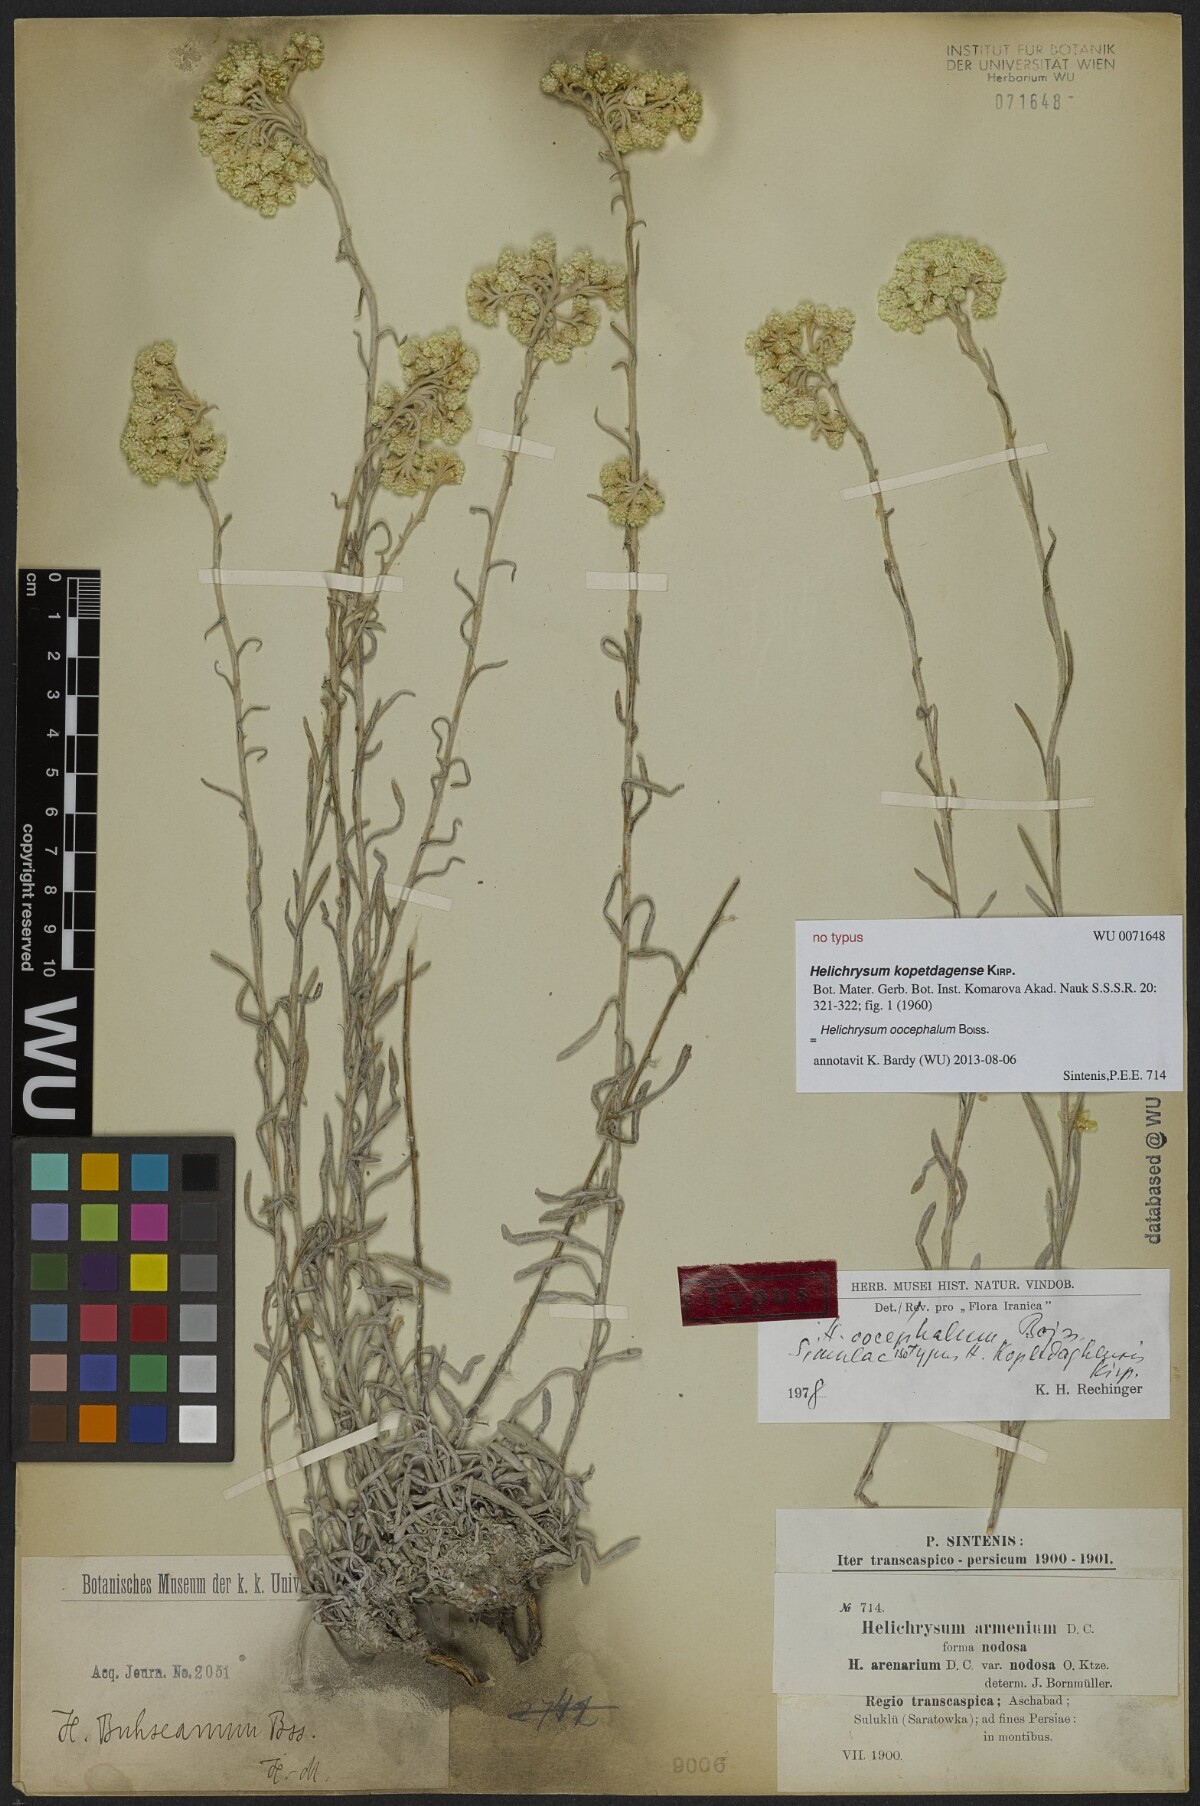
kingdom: Plantae
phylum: Tracheophyta
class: Magnoliopsida
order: Asterales
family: Asteraceae
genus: Helichrysum
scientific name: Helichrysum oocephalum
